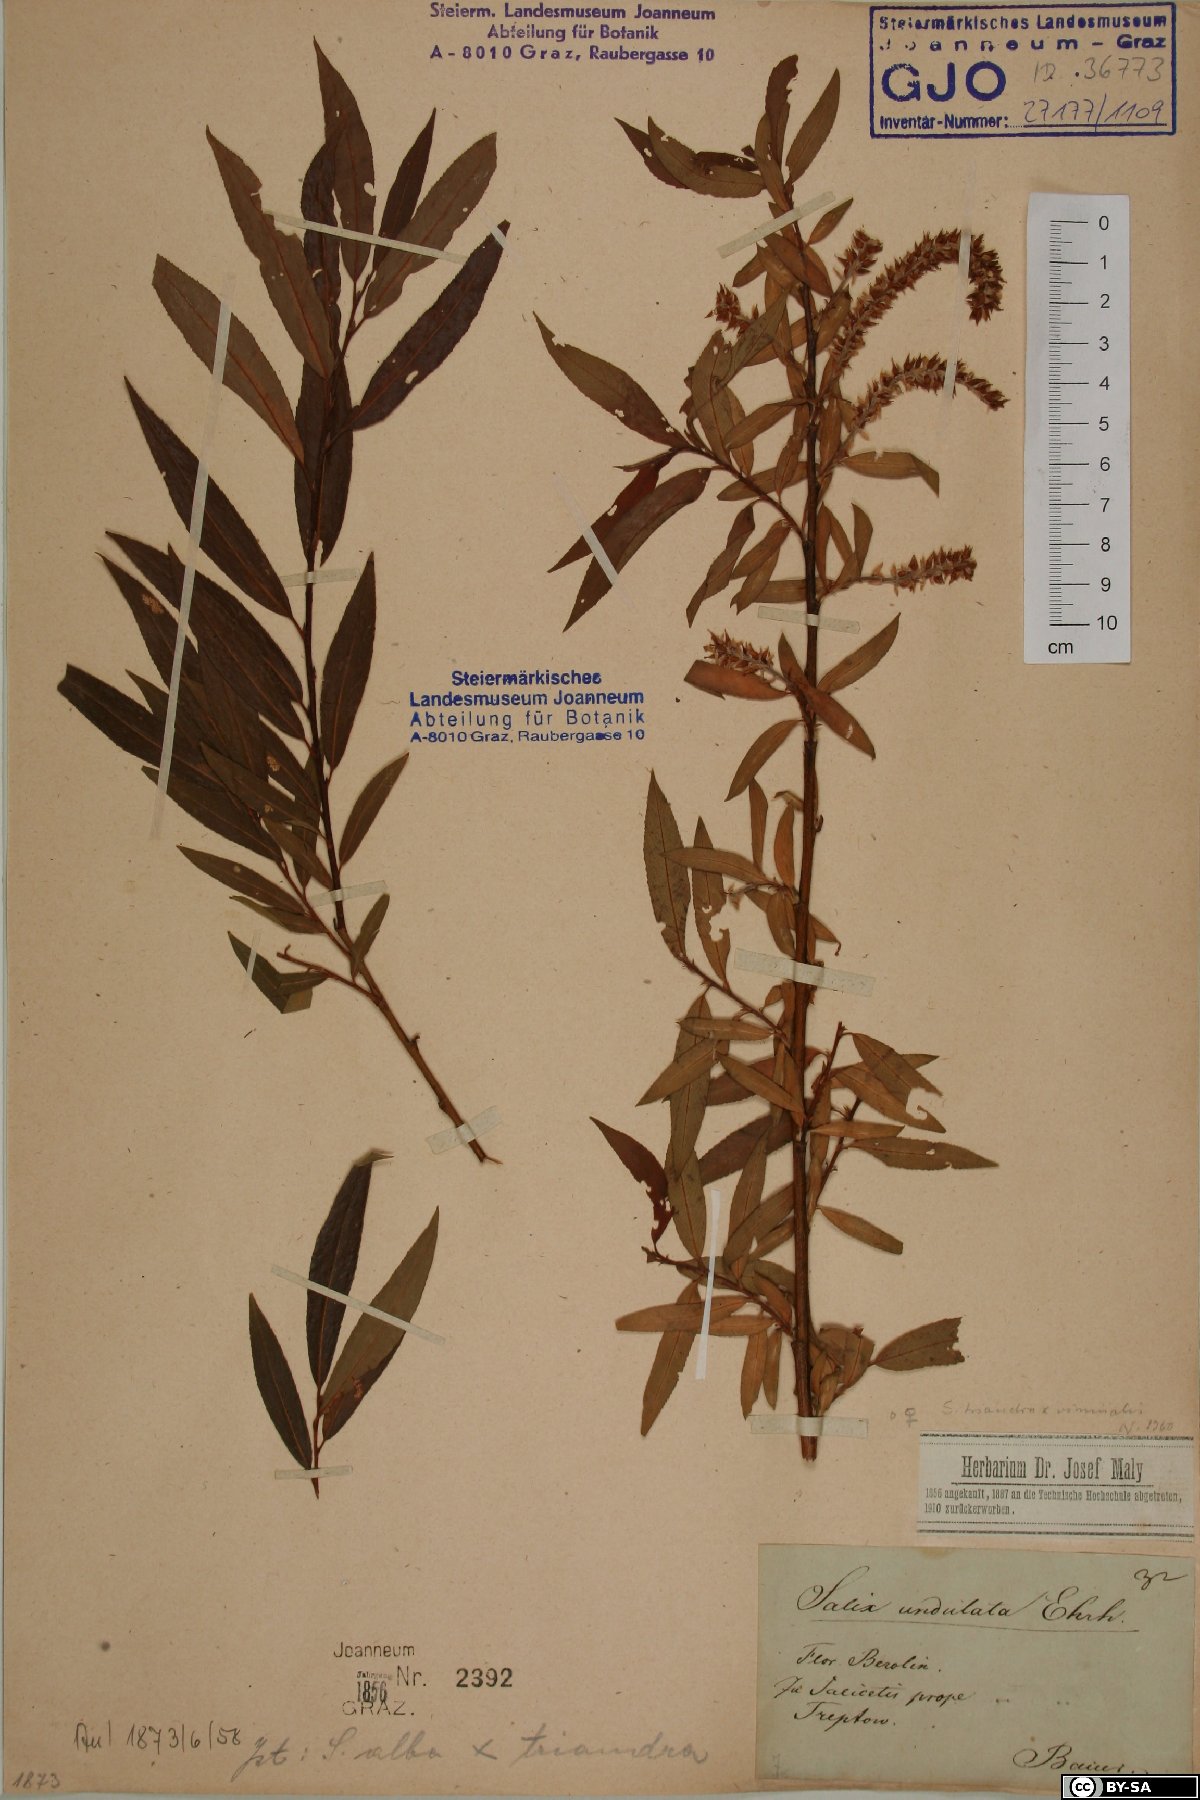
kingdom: Plantae
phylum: Tracheophyta
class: Magnoliopsida
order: Malpighiales
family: Salicaceae
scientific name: Salicaceae
